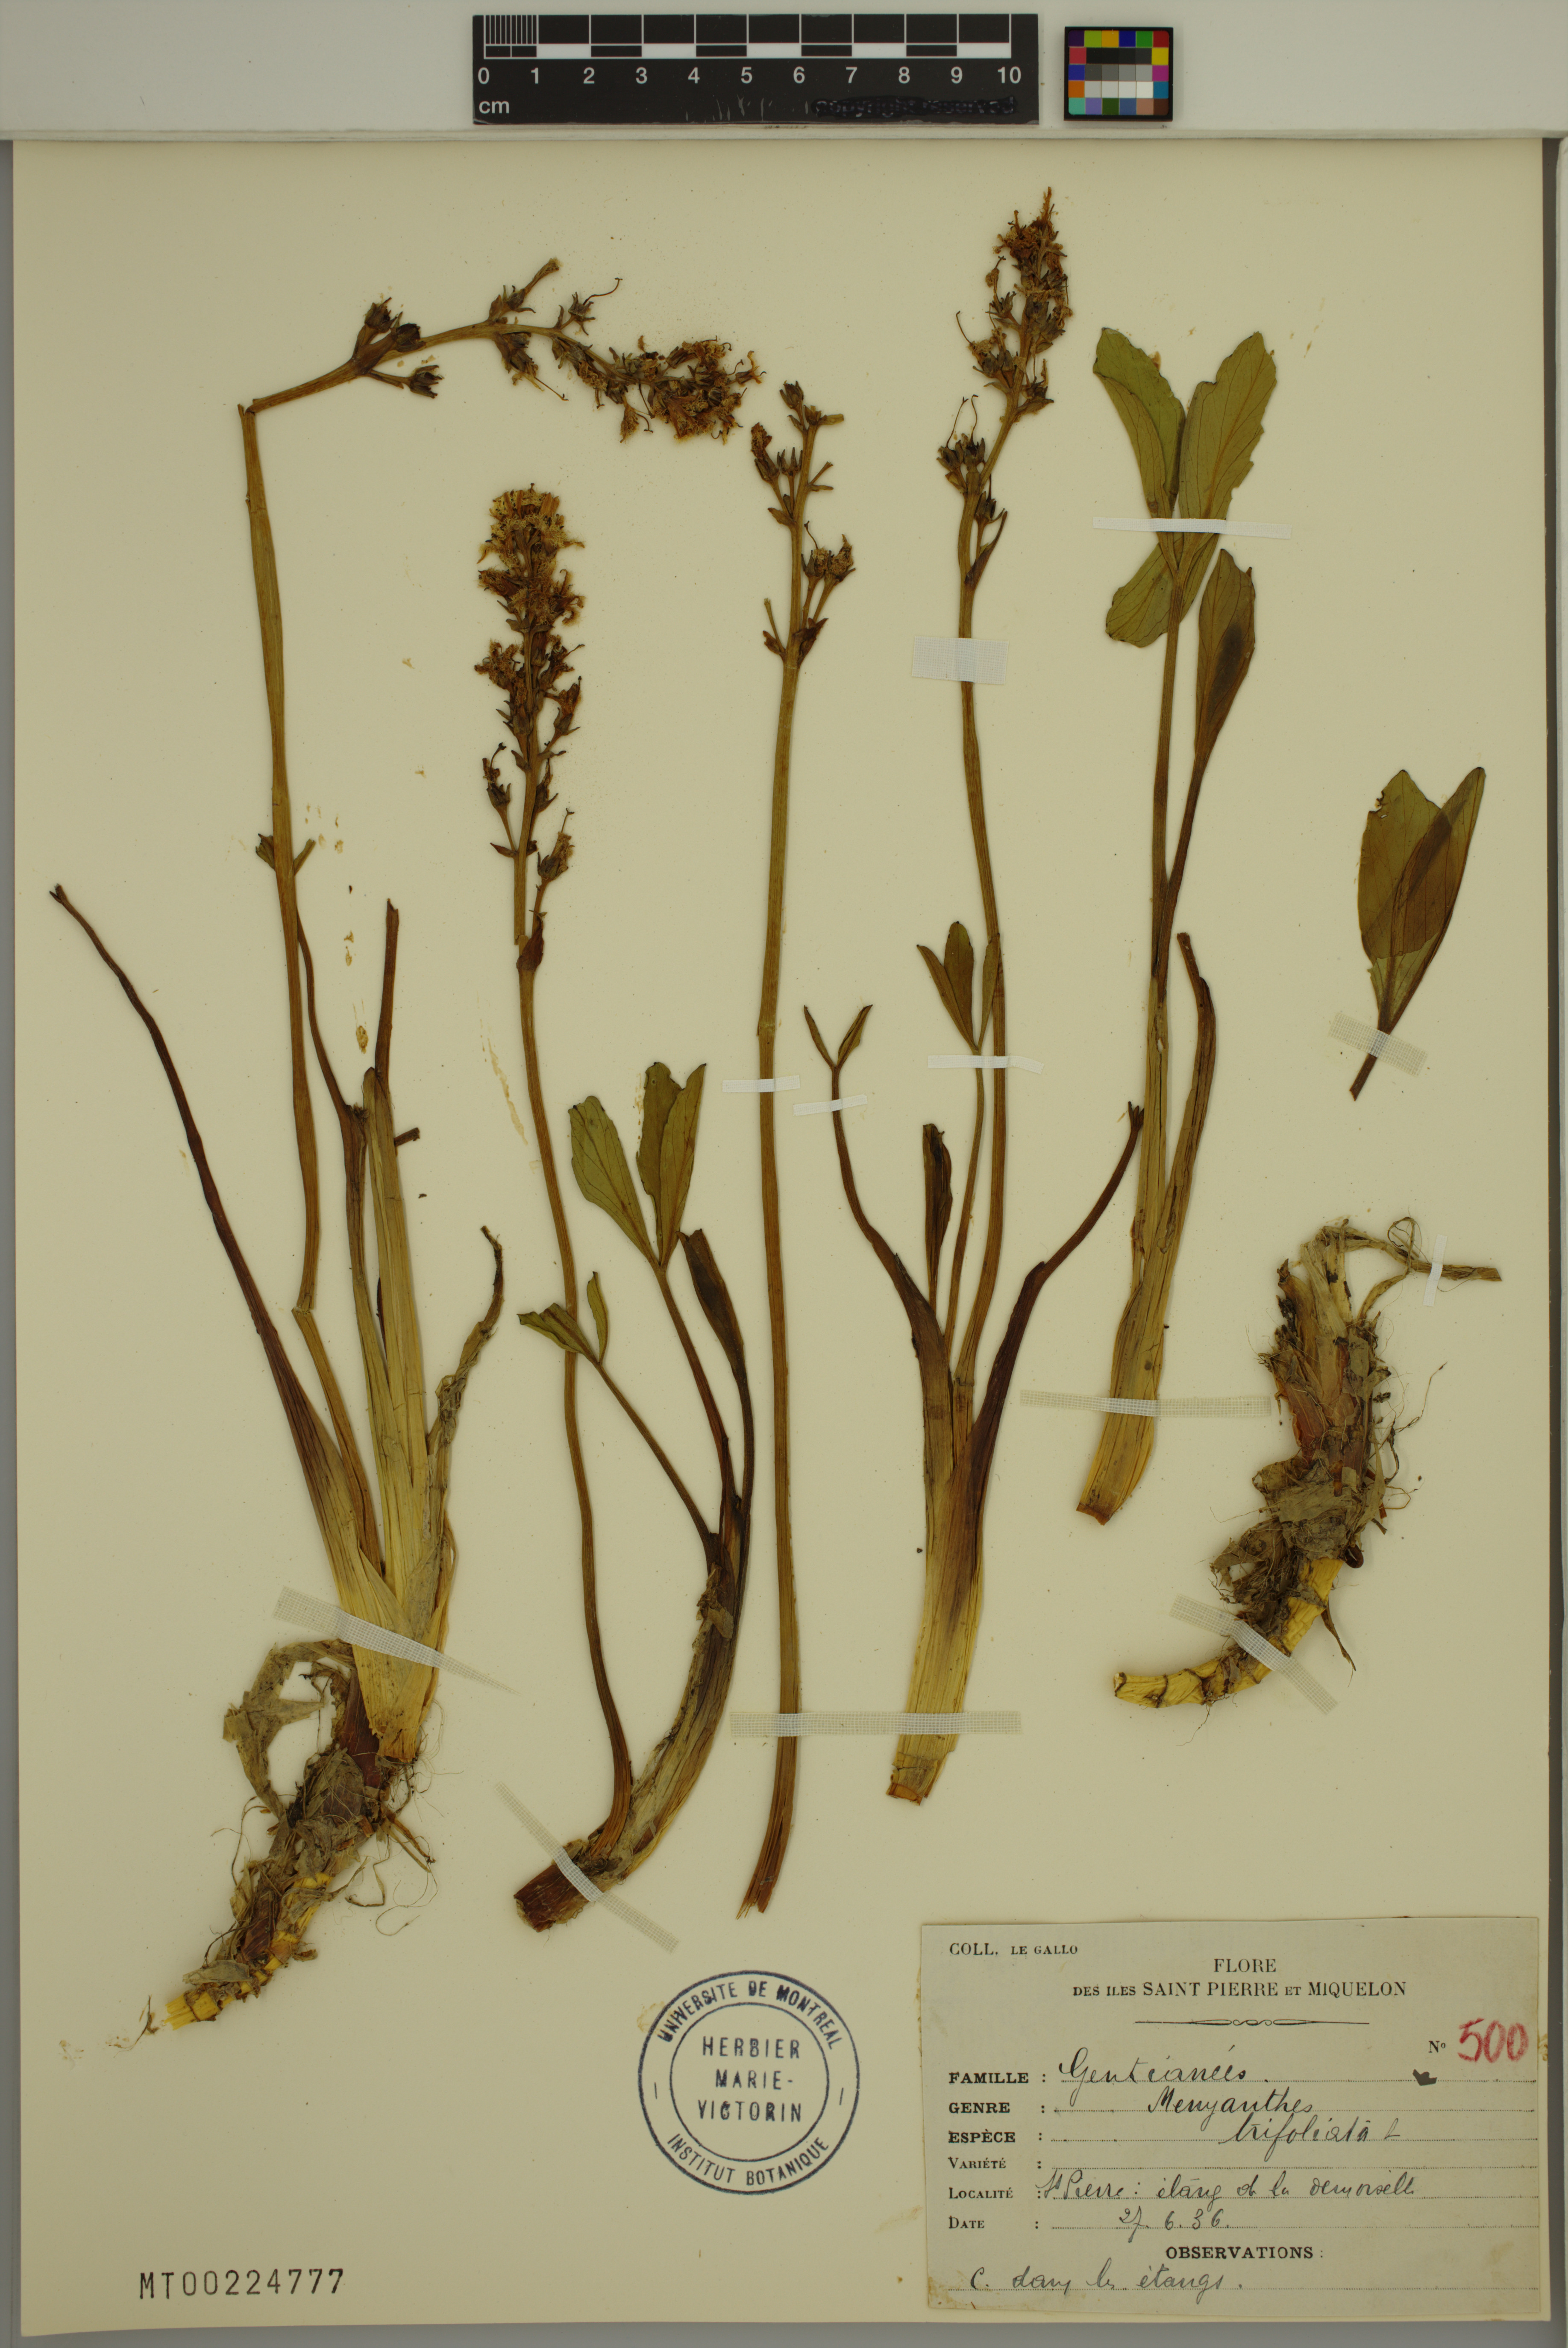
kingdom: Plantae
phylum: Tracheophyta
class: Magnoliopsida
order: Asterales
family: Menyanthaceae
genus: Menyanthes
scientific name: Menyanthes trifoliata
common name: Bogbean
